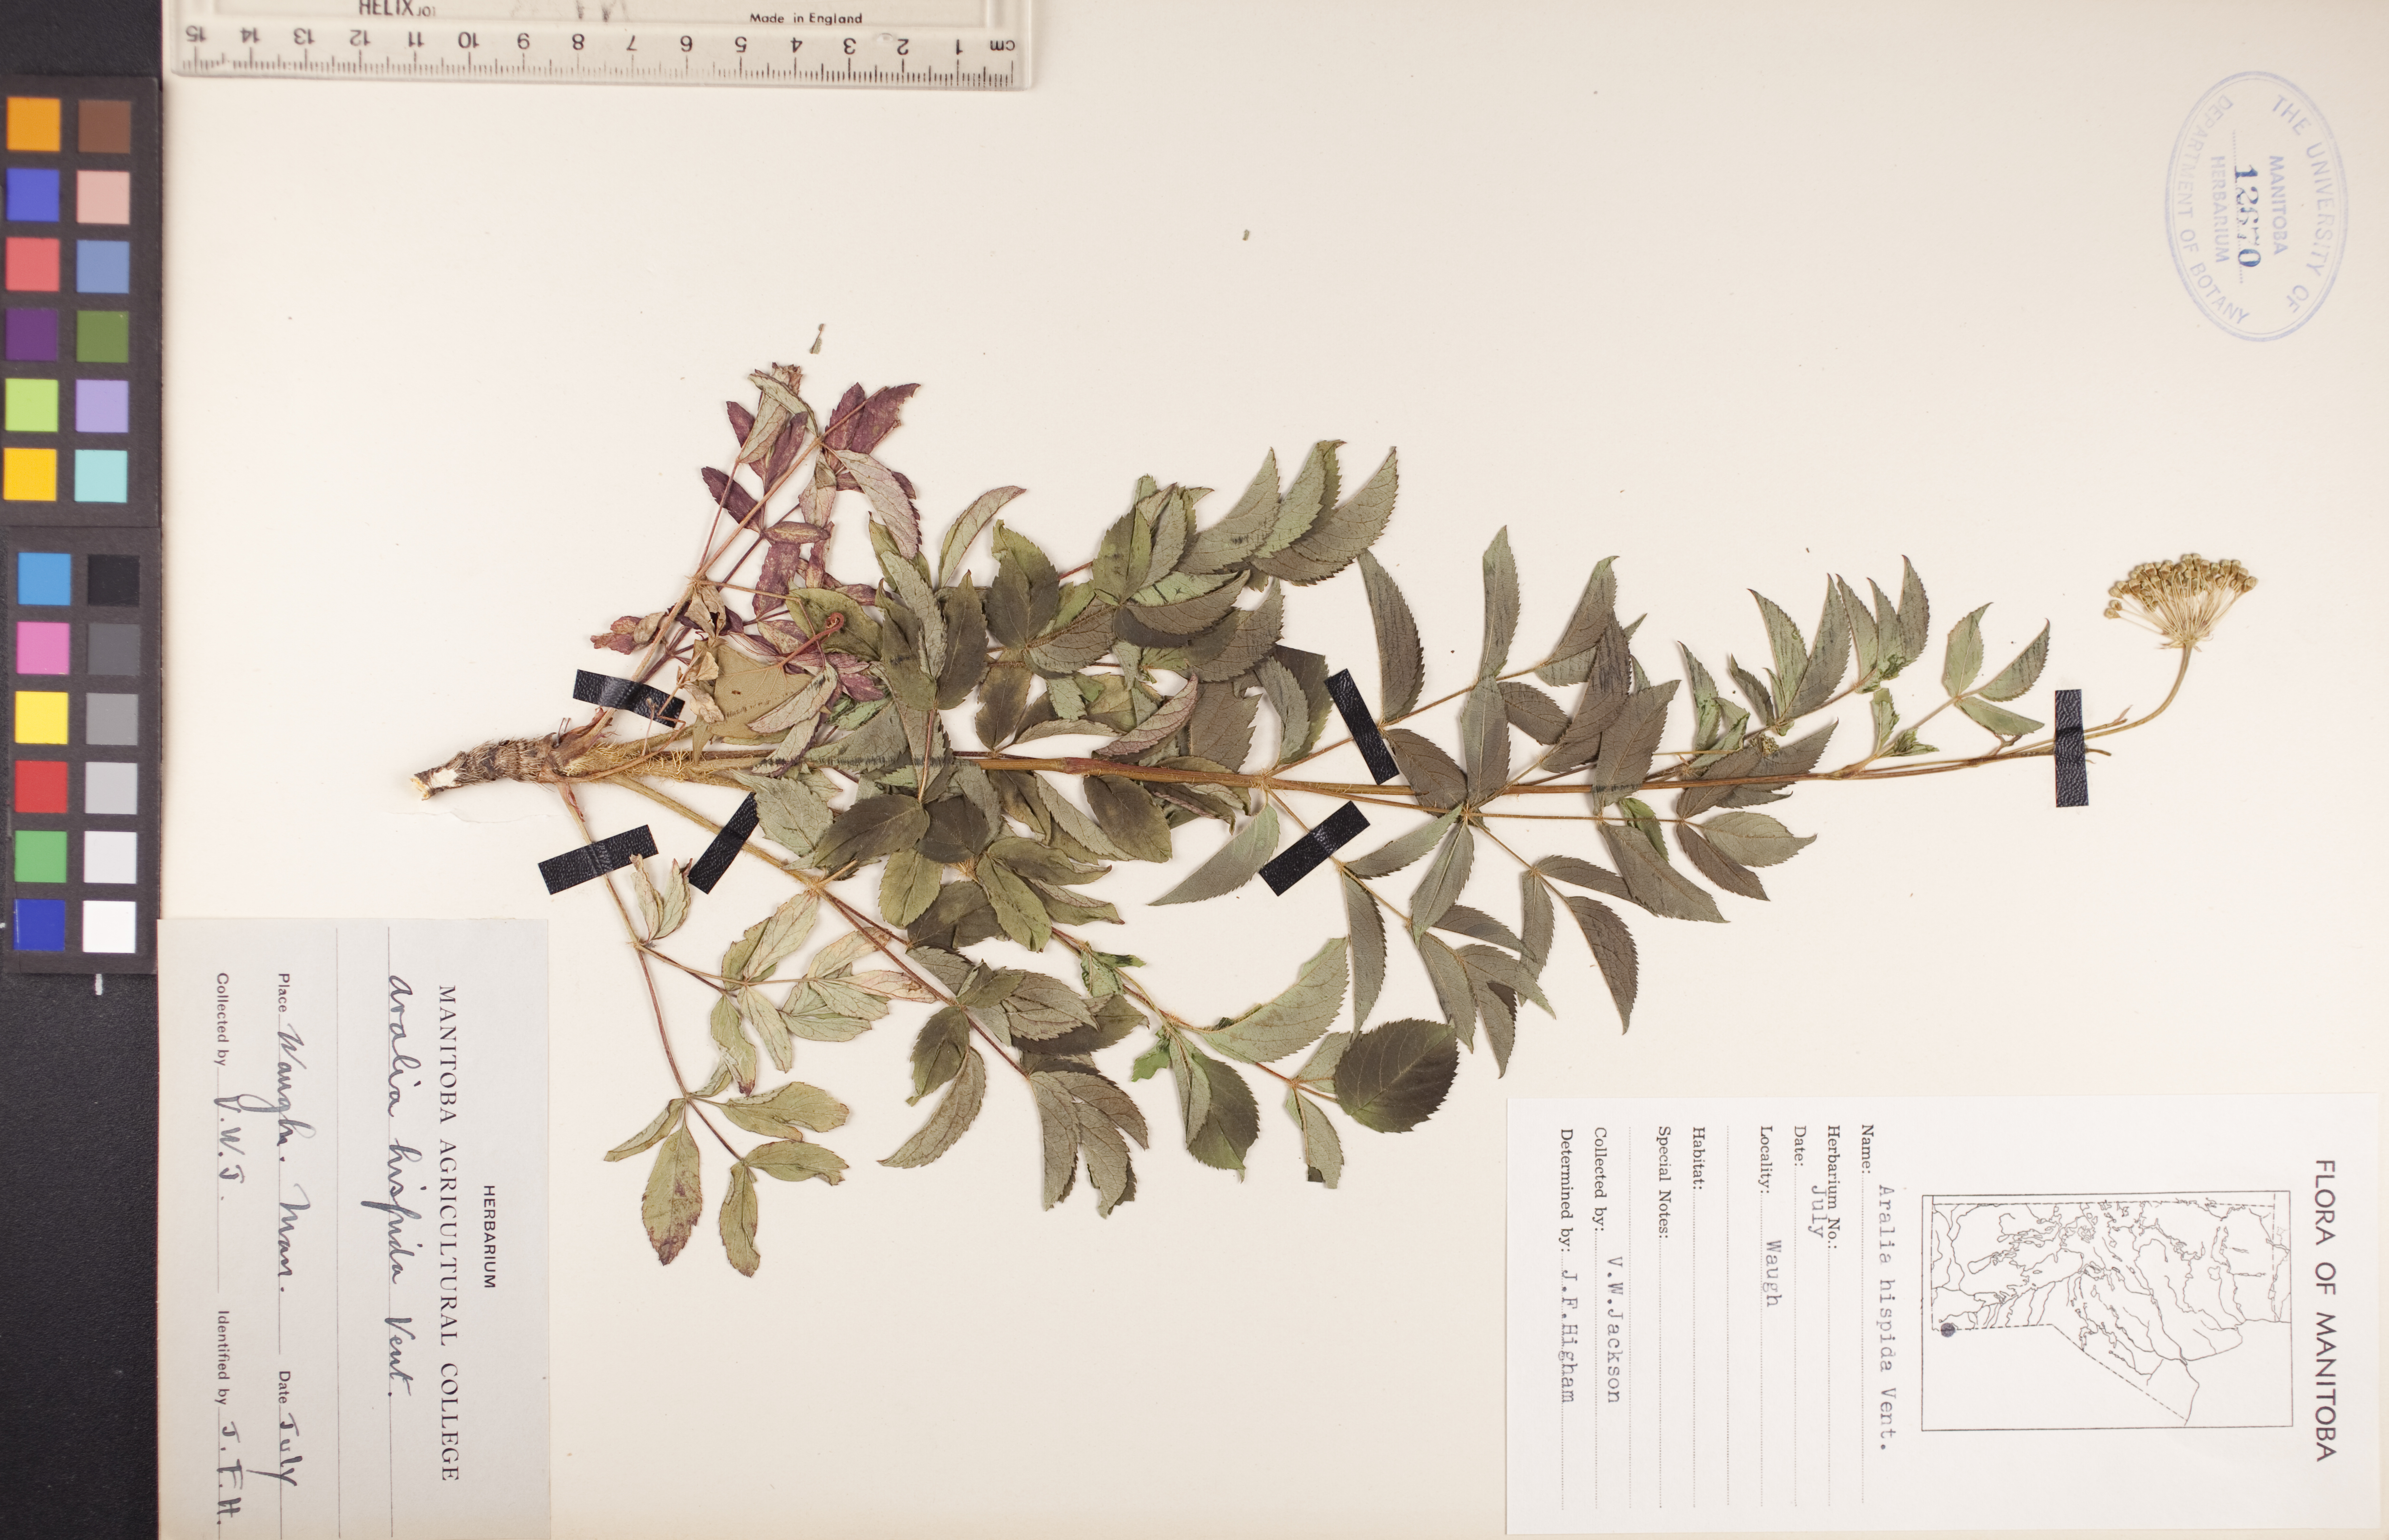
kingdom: Plantae
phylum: Tracheophyta
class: Magnoliopsida
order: Apiales
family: Araliaceae
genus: Aralia
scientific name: Aralia hispida
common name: Bristly sarsaparilla
